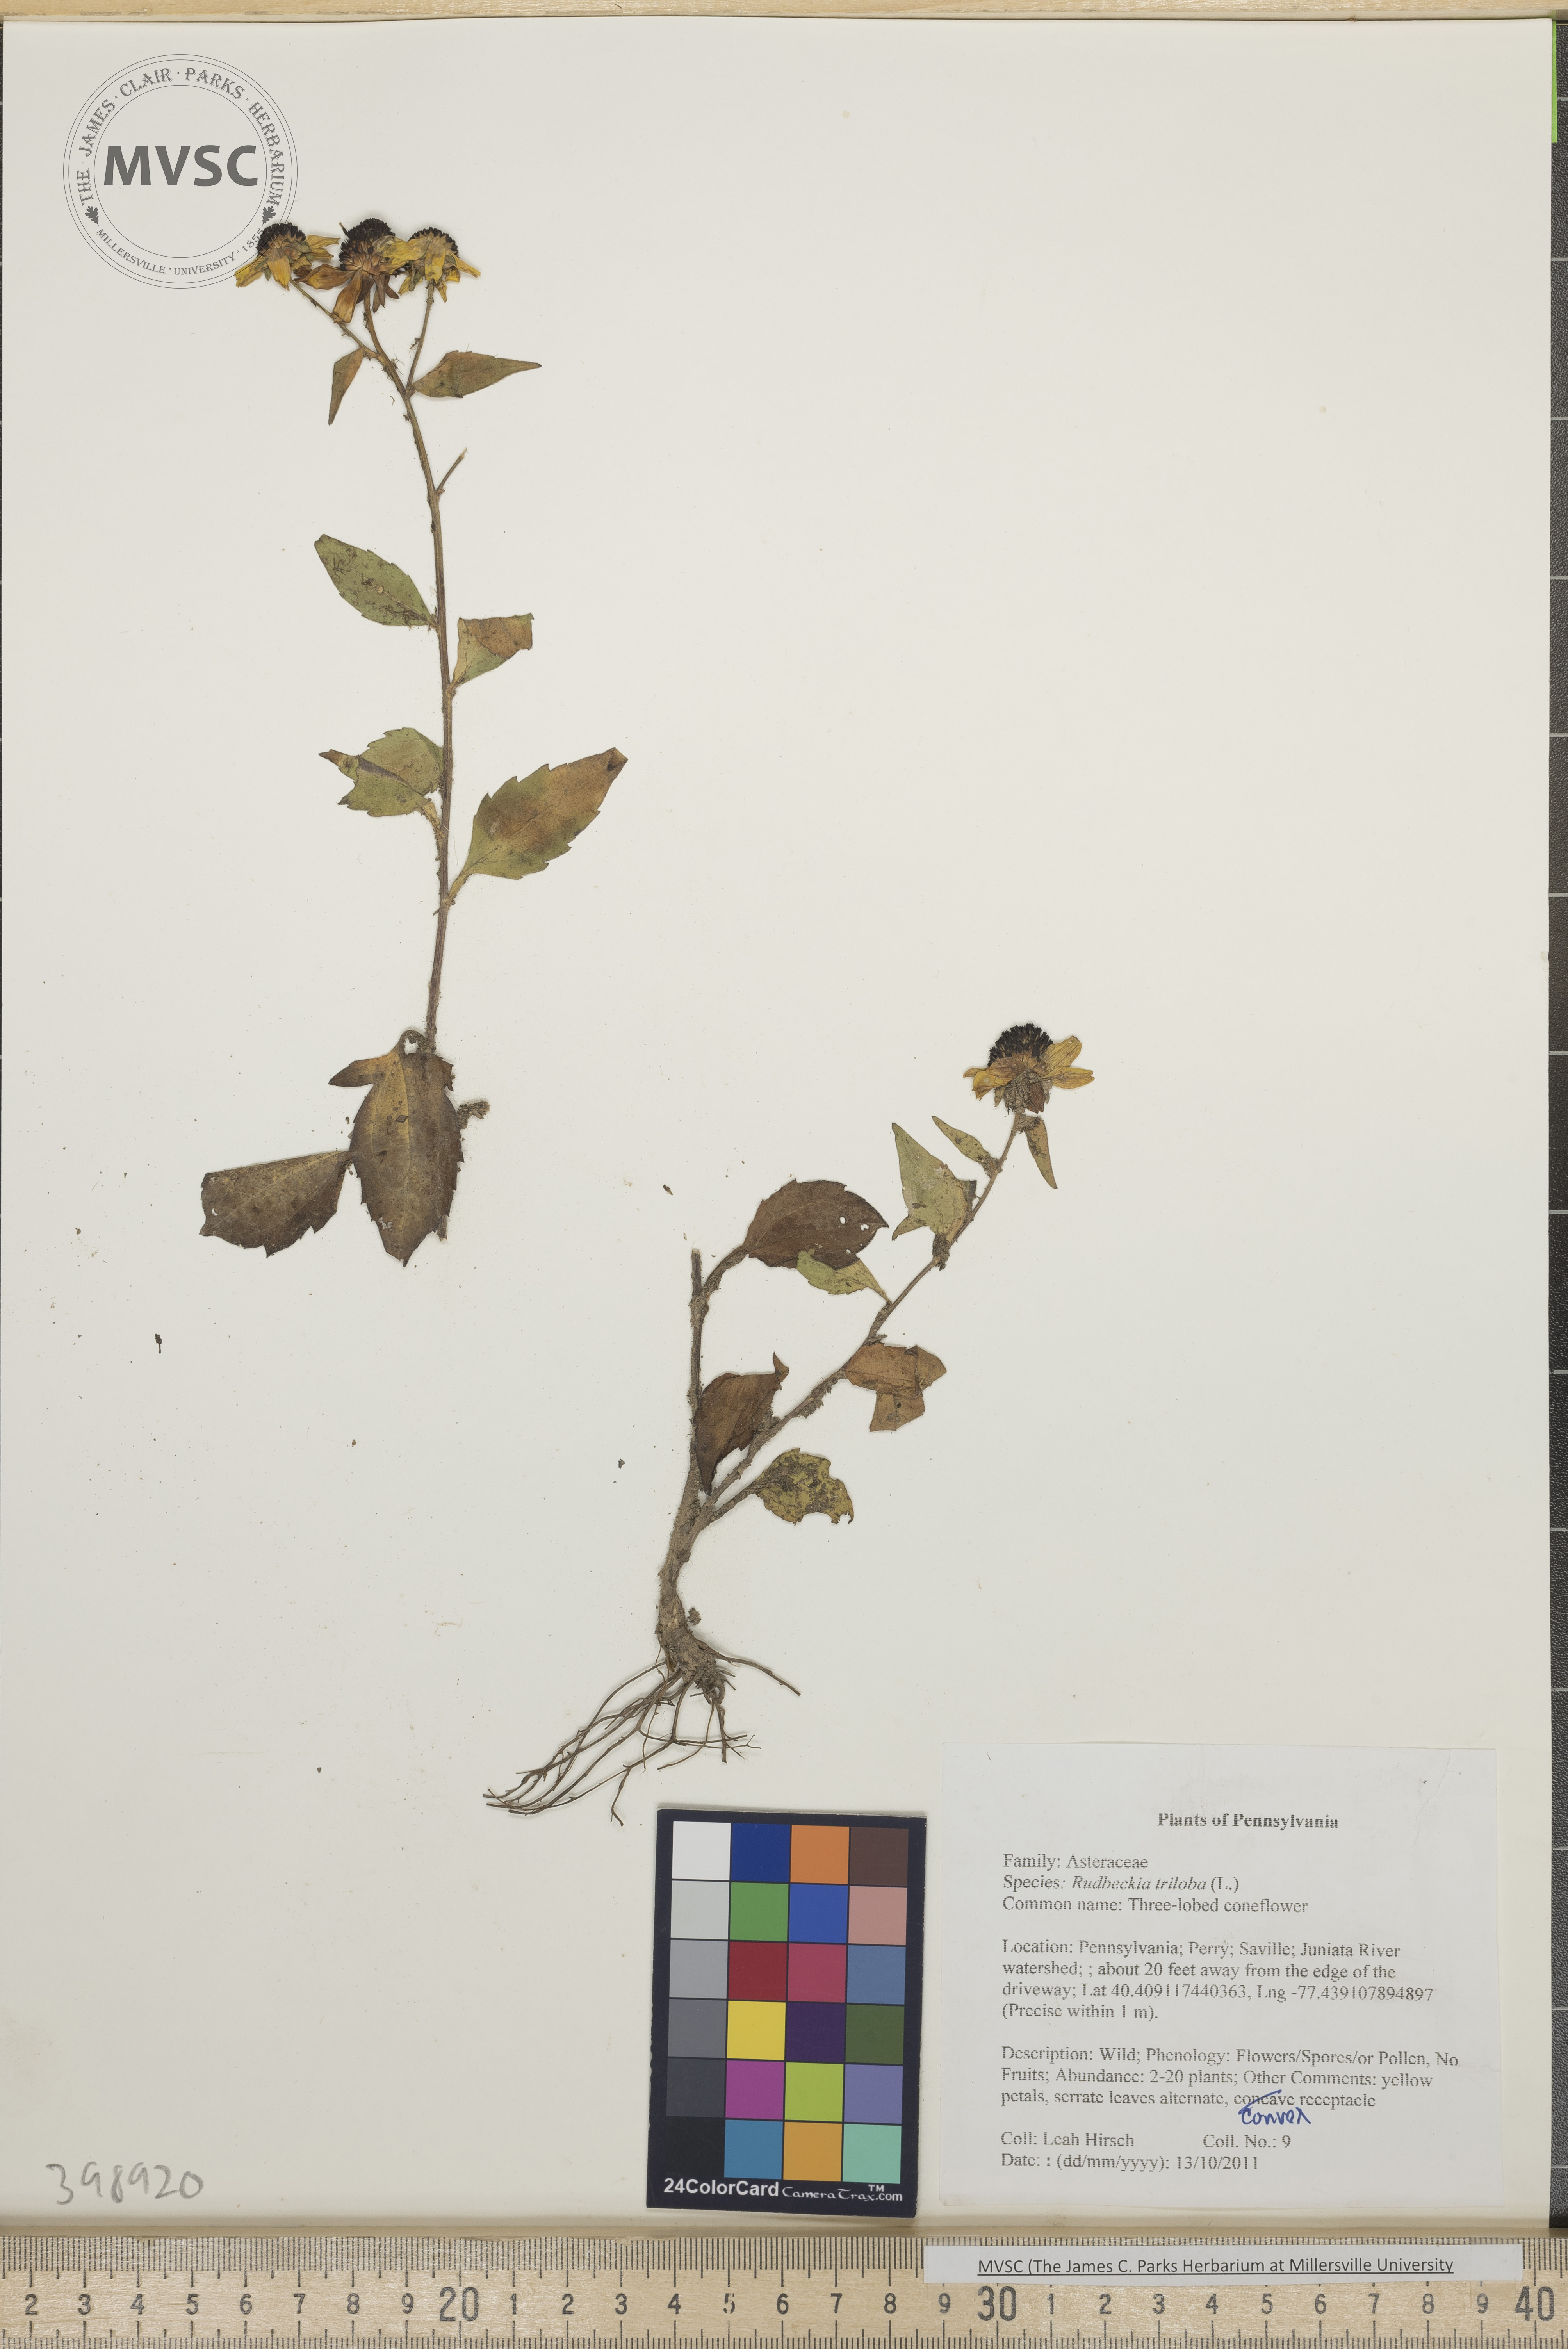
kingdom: Plantae
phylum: Tracheophyta
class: Magnoliopsida
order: Asterales
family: Asteraceae
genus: Rudbeckia
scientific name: Rudbeckia triloba
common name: Cutleaf coneflower
